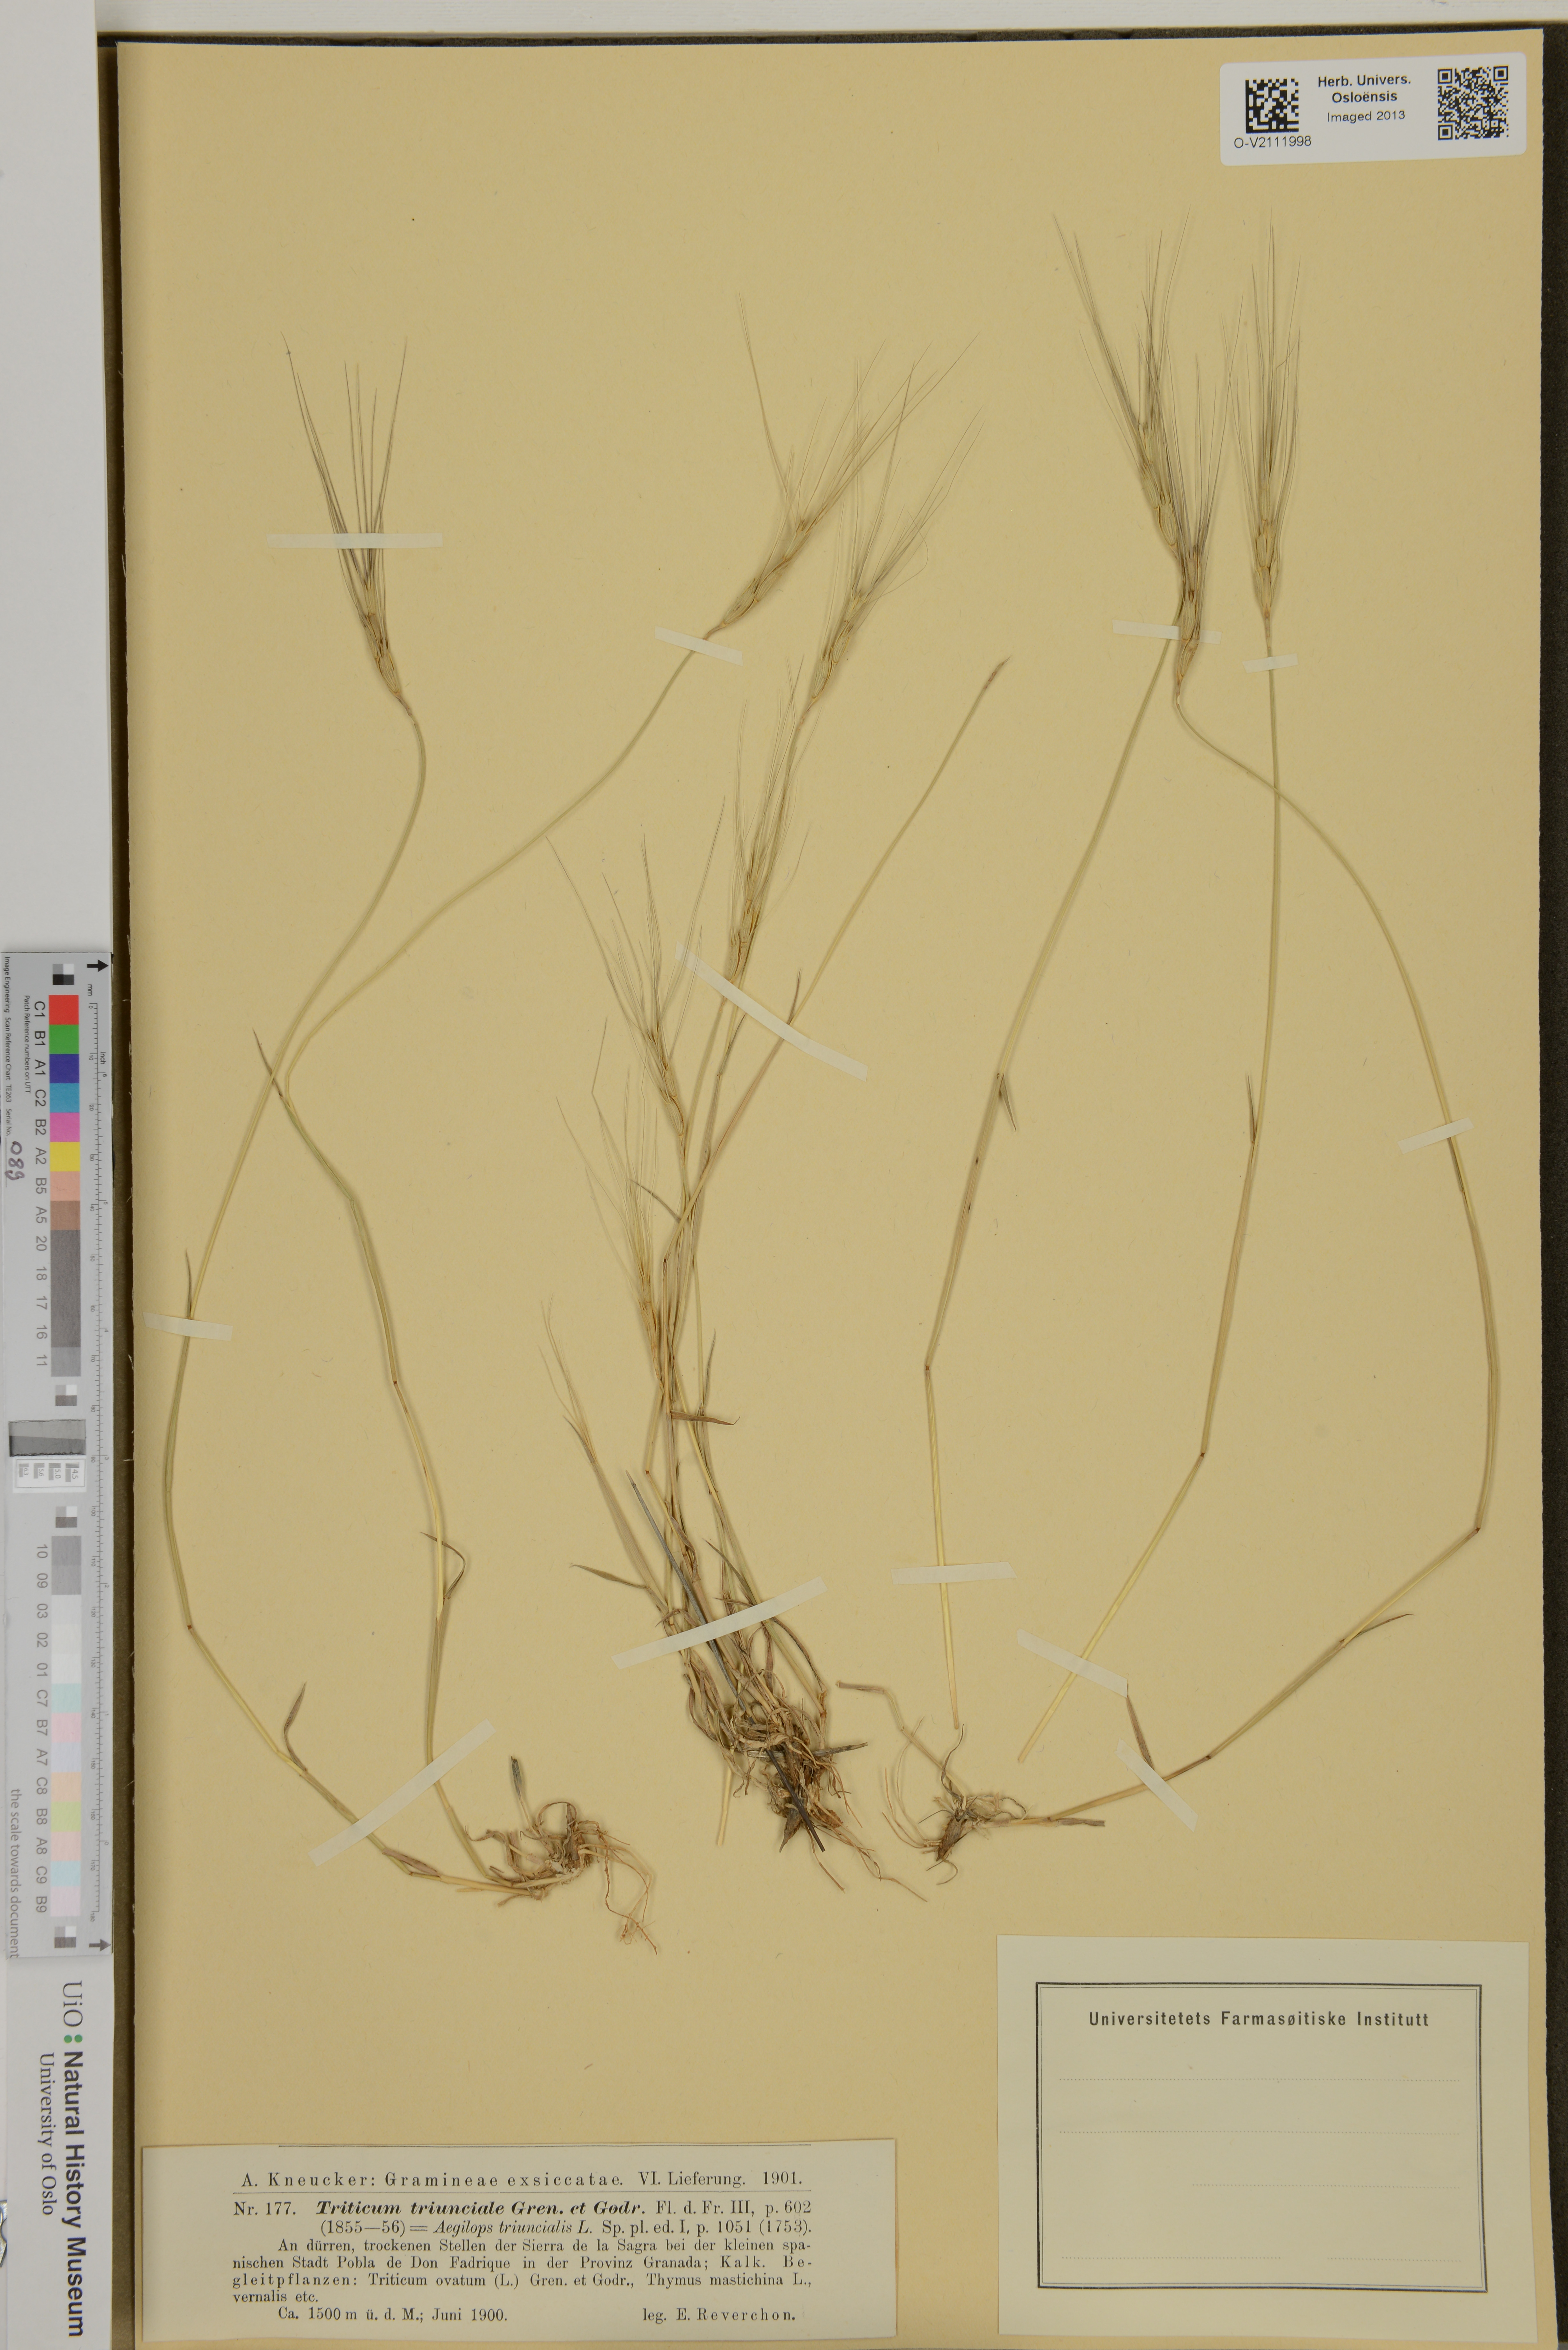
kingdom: Plantae
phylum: Tracheophyta
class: Liliopsida
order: Poales
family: Poaceae
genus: Aegilops
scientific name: Aegilops triuncialis
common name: Barb goat grass
